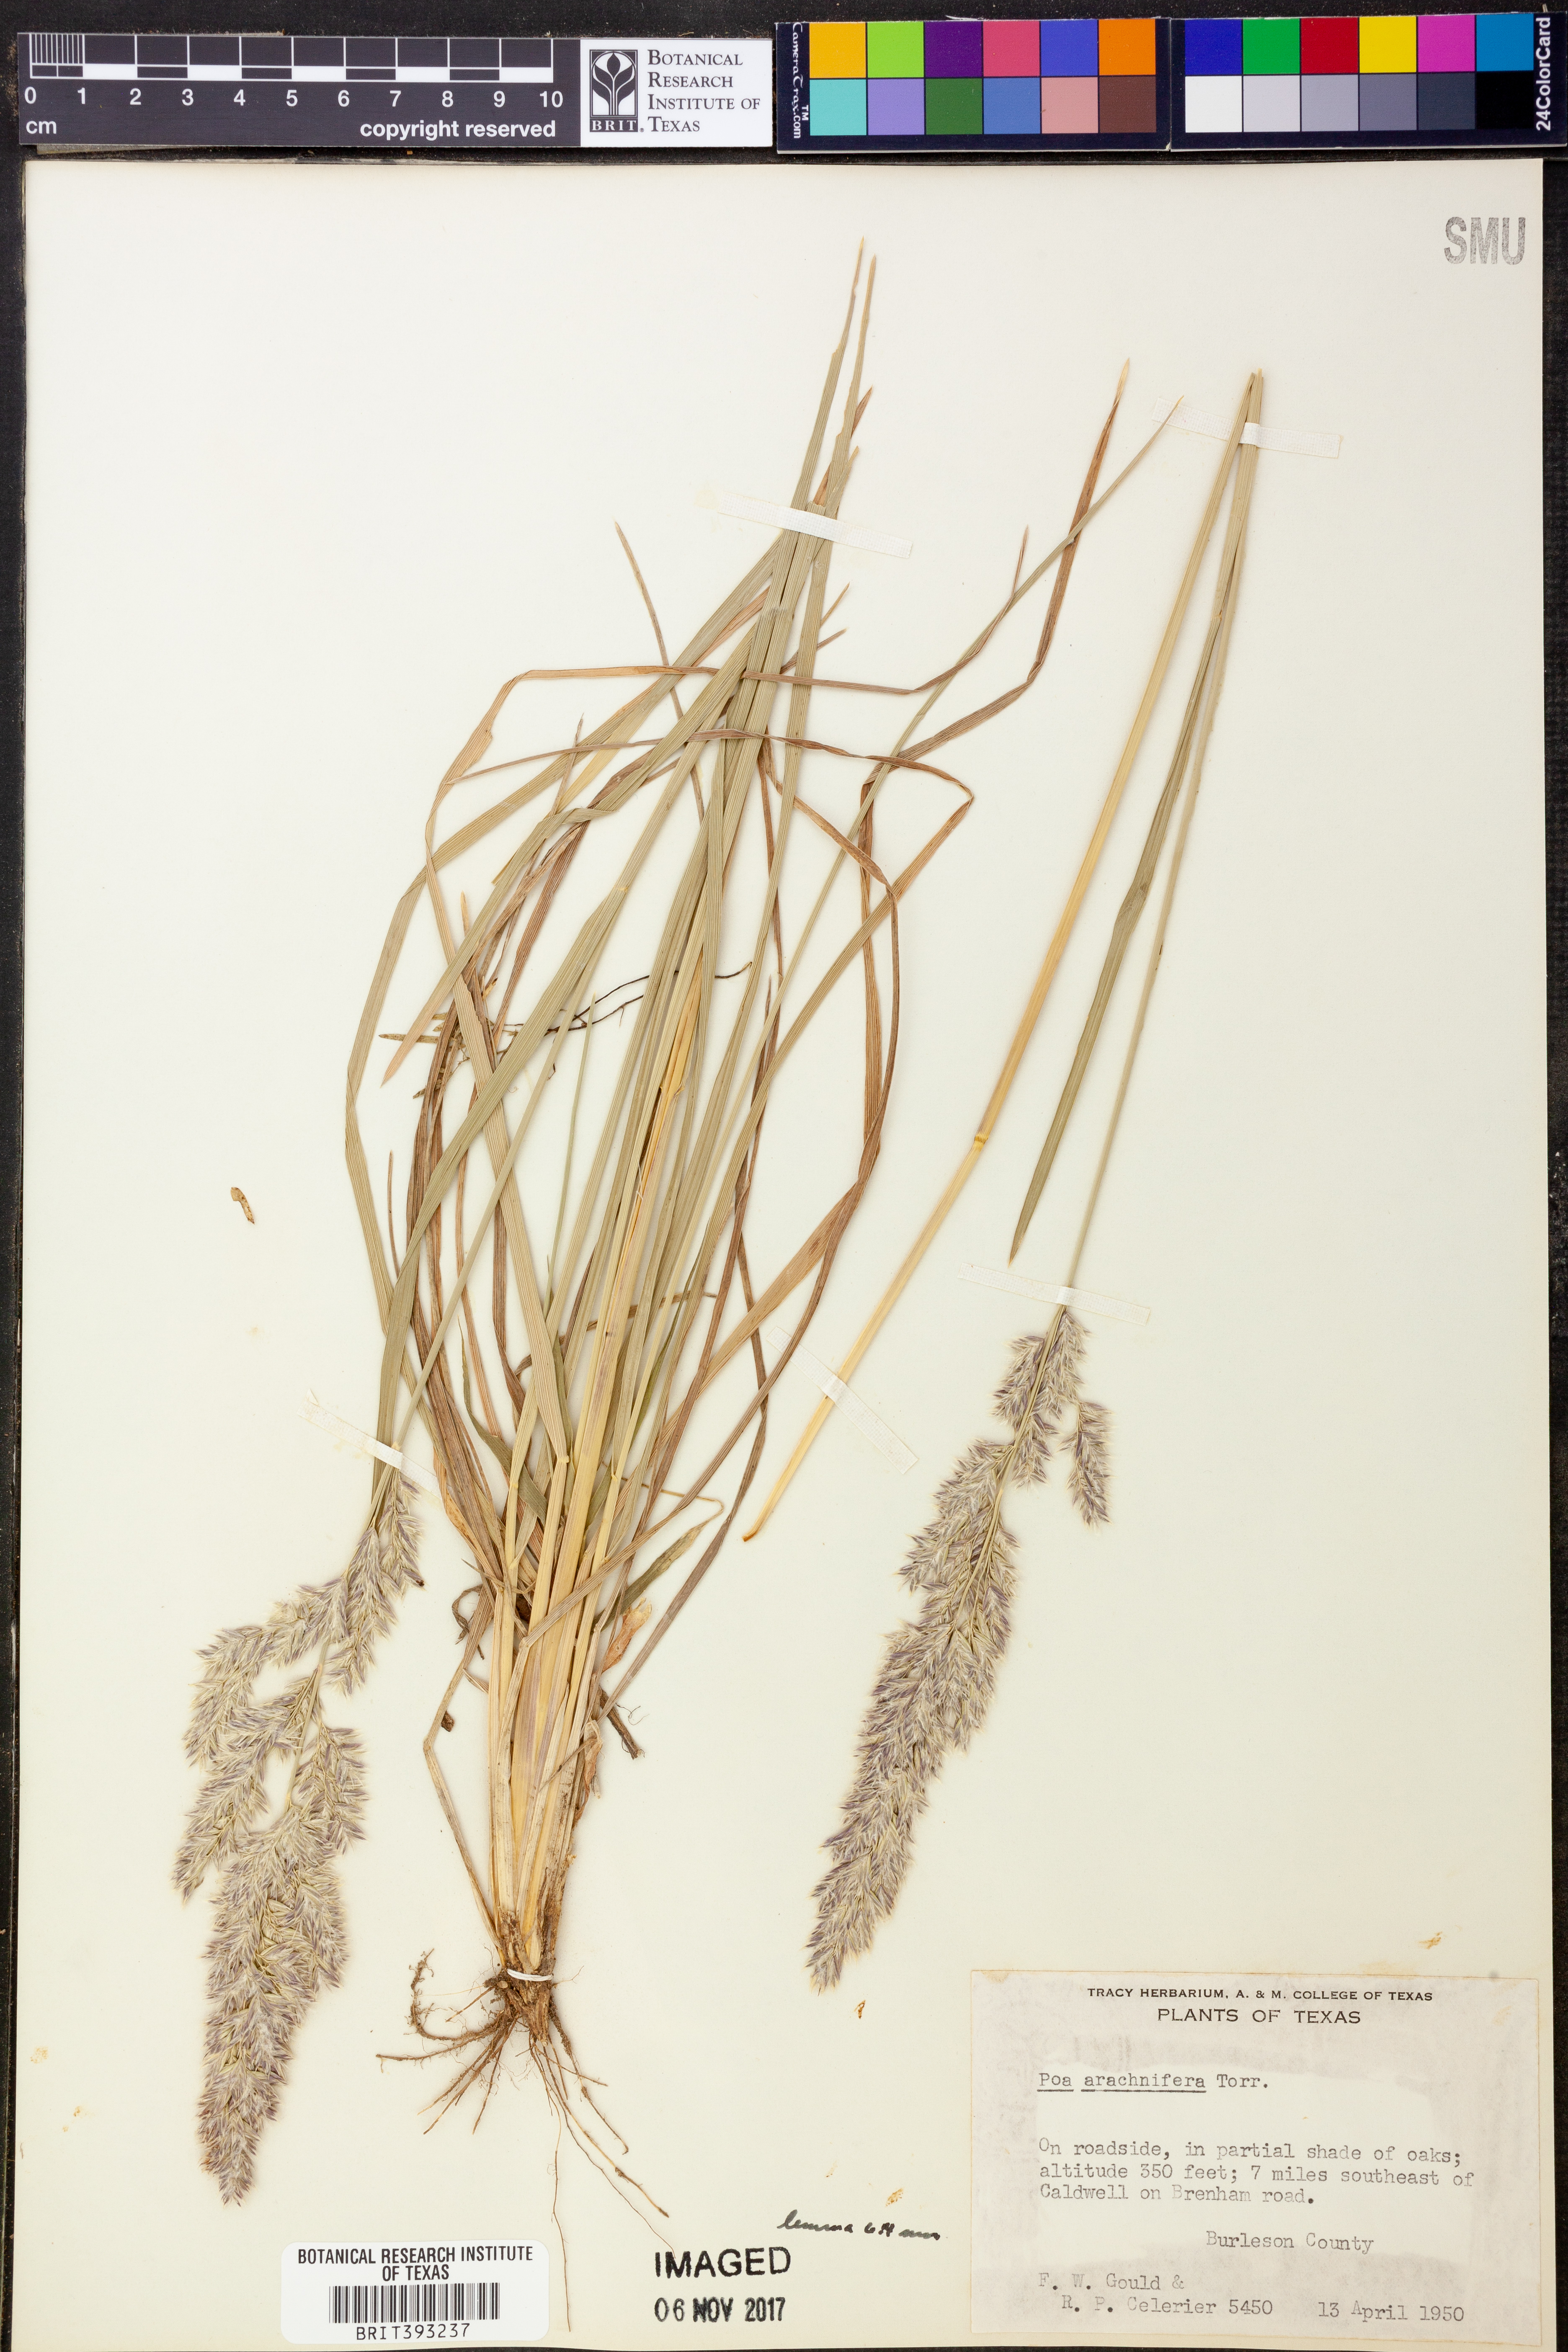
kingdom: Plantae
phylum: Tracheophyta
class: Liliopsida
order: Poales
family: Poaceae
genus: Poa
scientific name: Poa arachnifera
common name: Texas bluegrass
